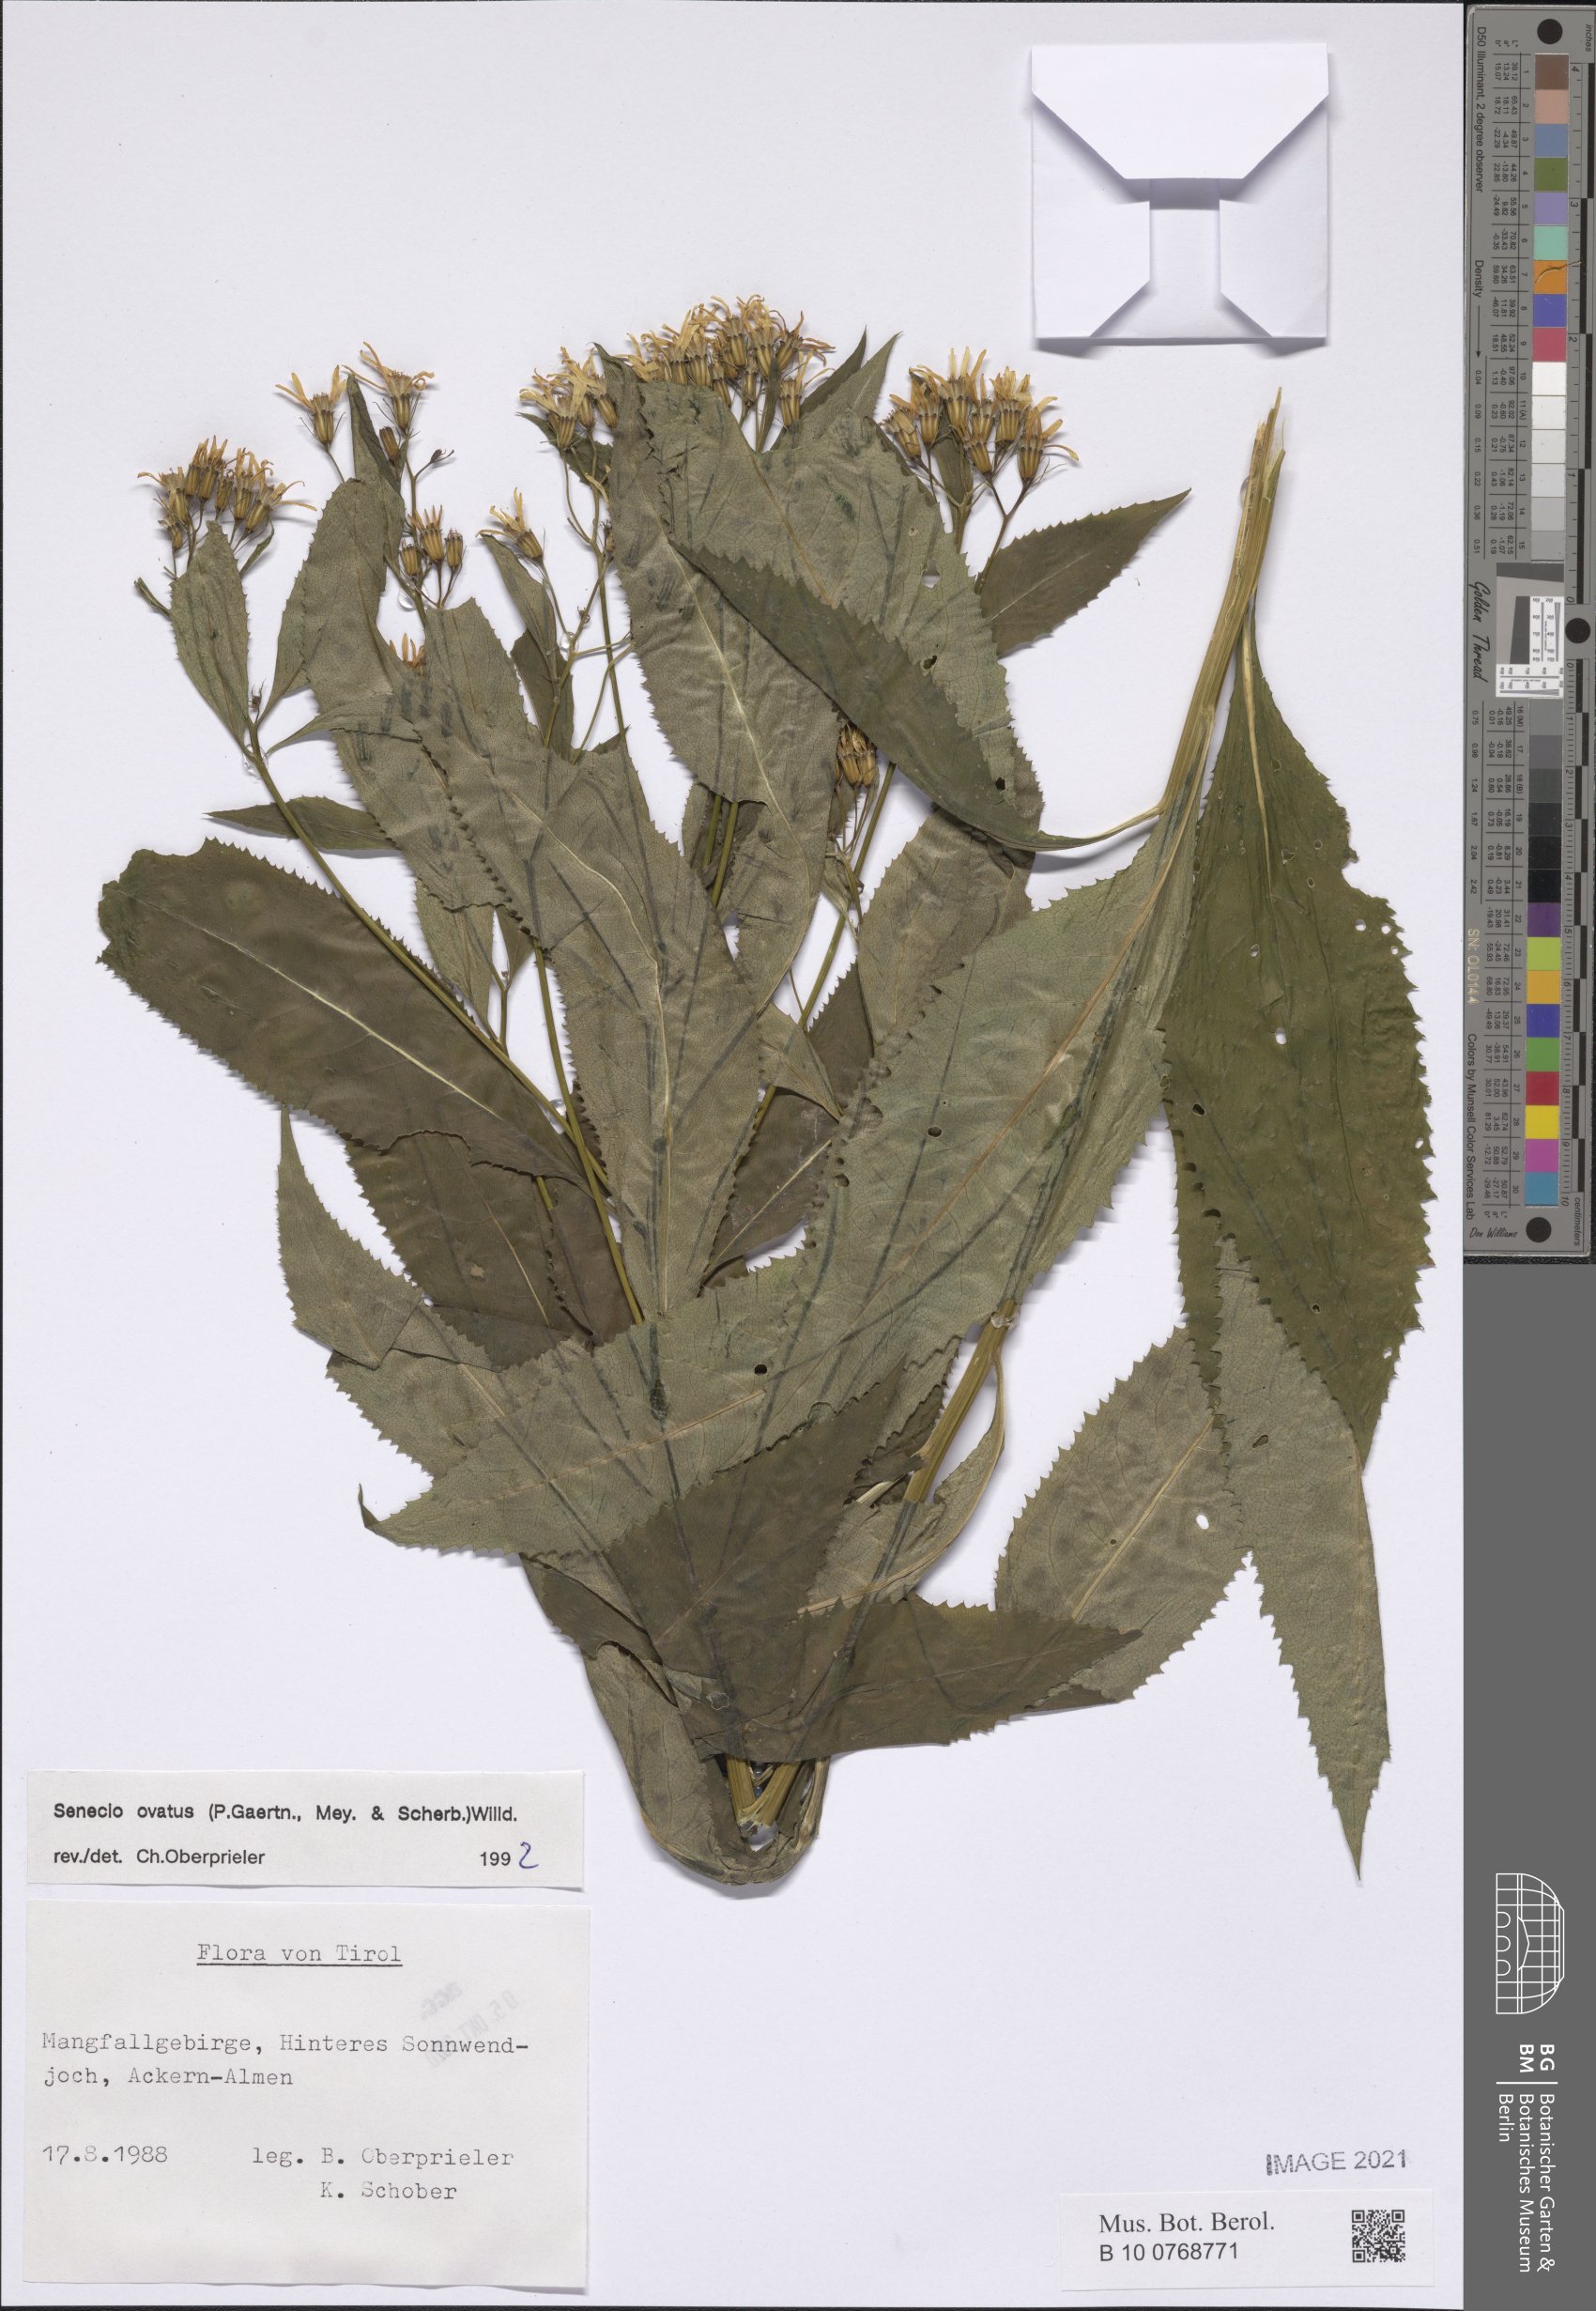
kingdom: Plantae
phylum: Tracheophyta
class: Magnoliopsida
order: Asterales
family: Asteraceae
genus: Senecio
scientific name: Senecio ovatus
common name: Wood ragwort
